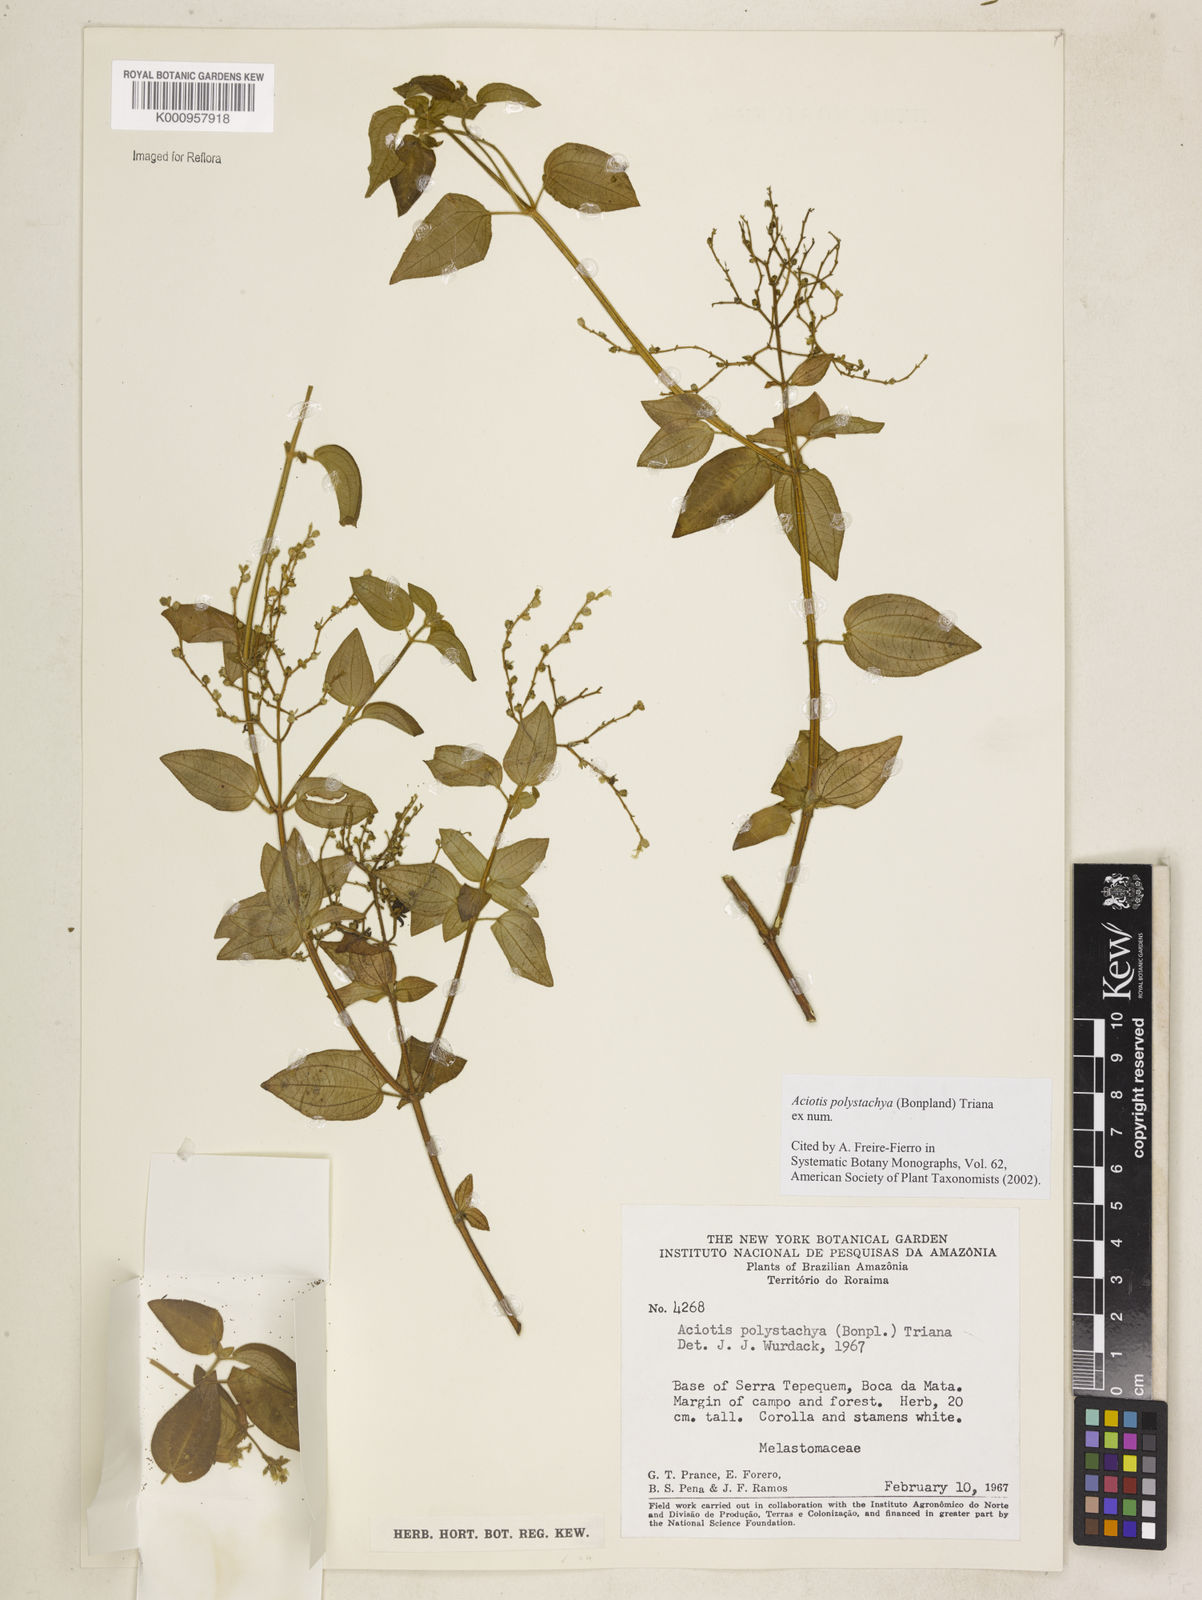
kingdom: Plantae
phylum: Tracheophyta
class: Magnoliopsida
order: Myrtales
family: Melastomataceae
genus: Aciotis
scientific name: Aciotis polystachya
